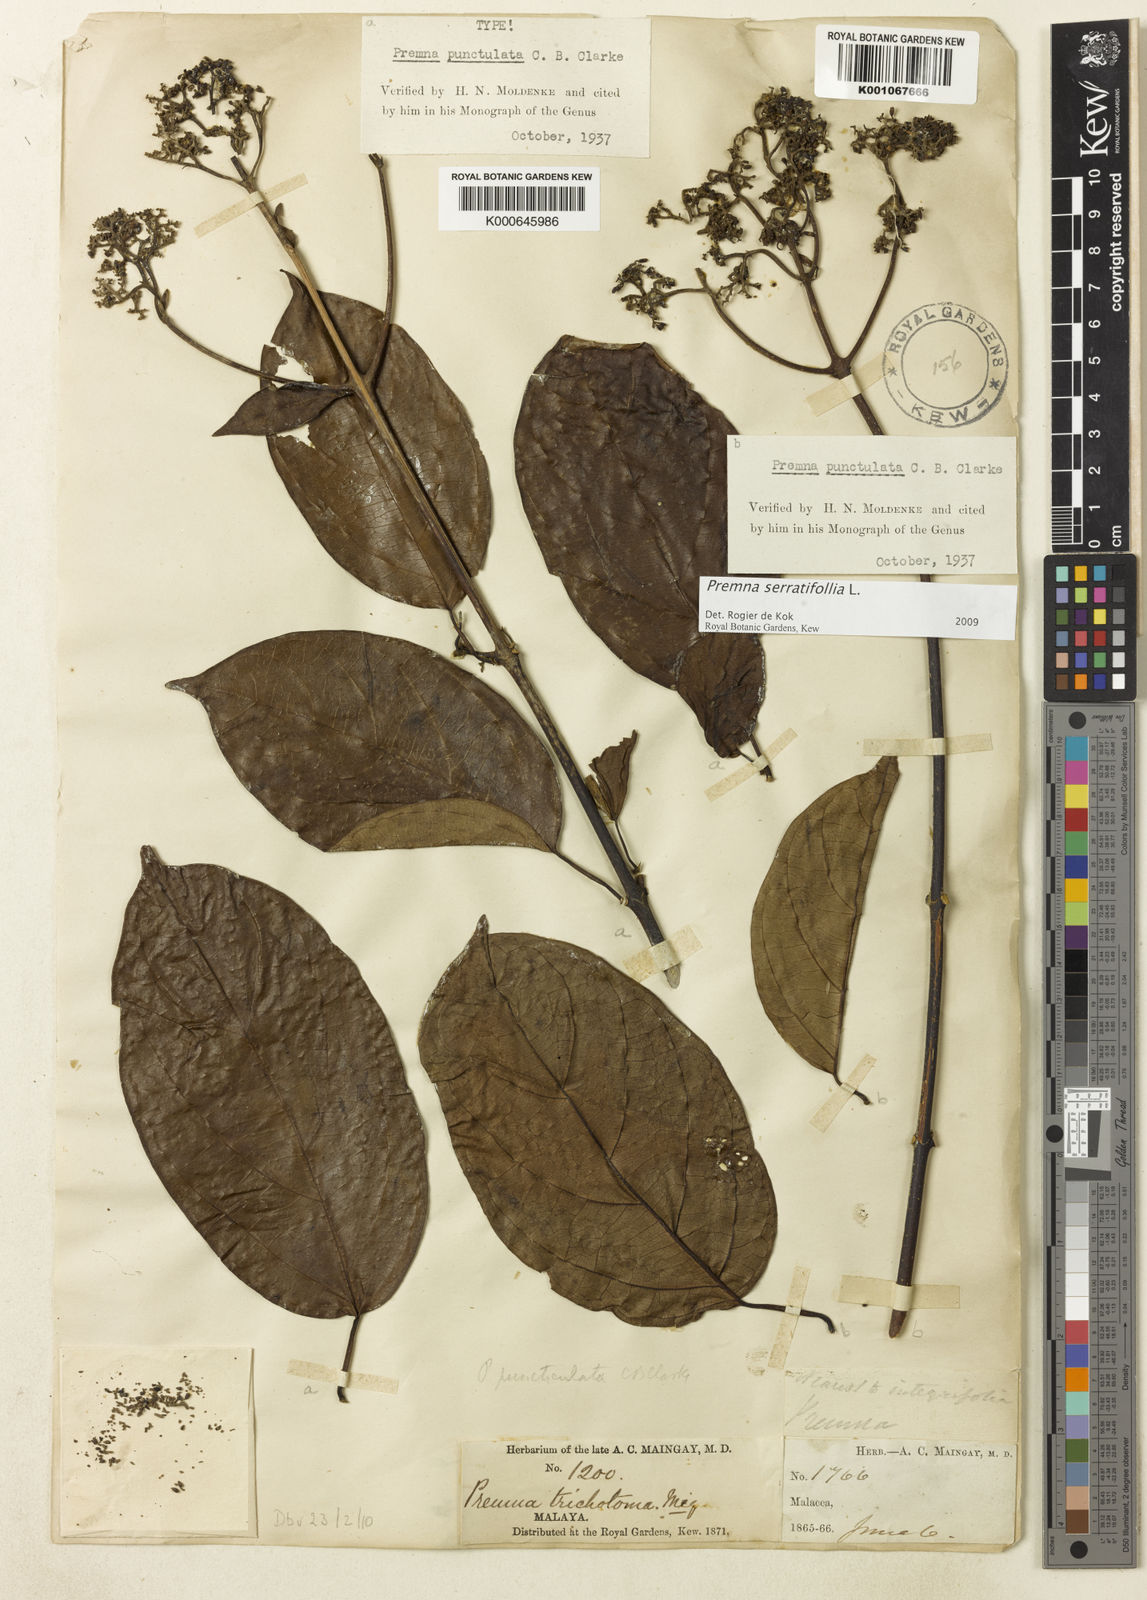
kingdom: Plantae
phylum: Tracheophyta
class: Magnoliopsida
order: Lamiales
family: Lamiaceae
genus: Premna
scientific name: Premna serratifolia
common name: Bastard guelder
